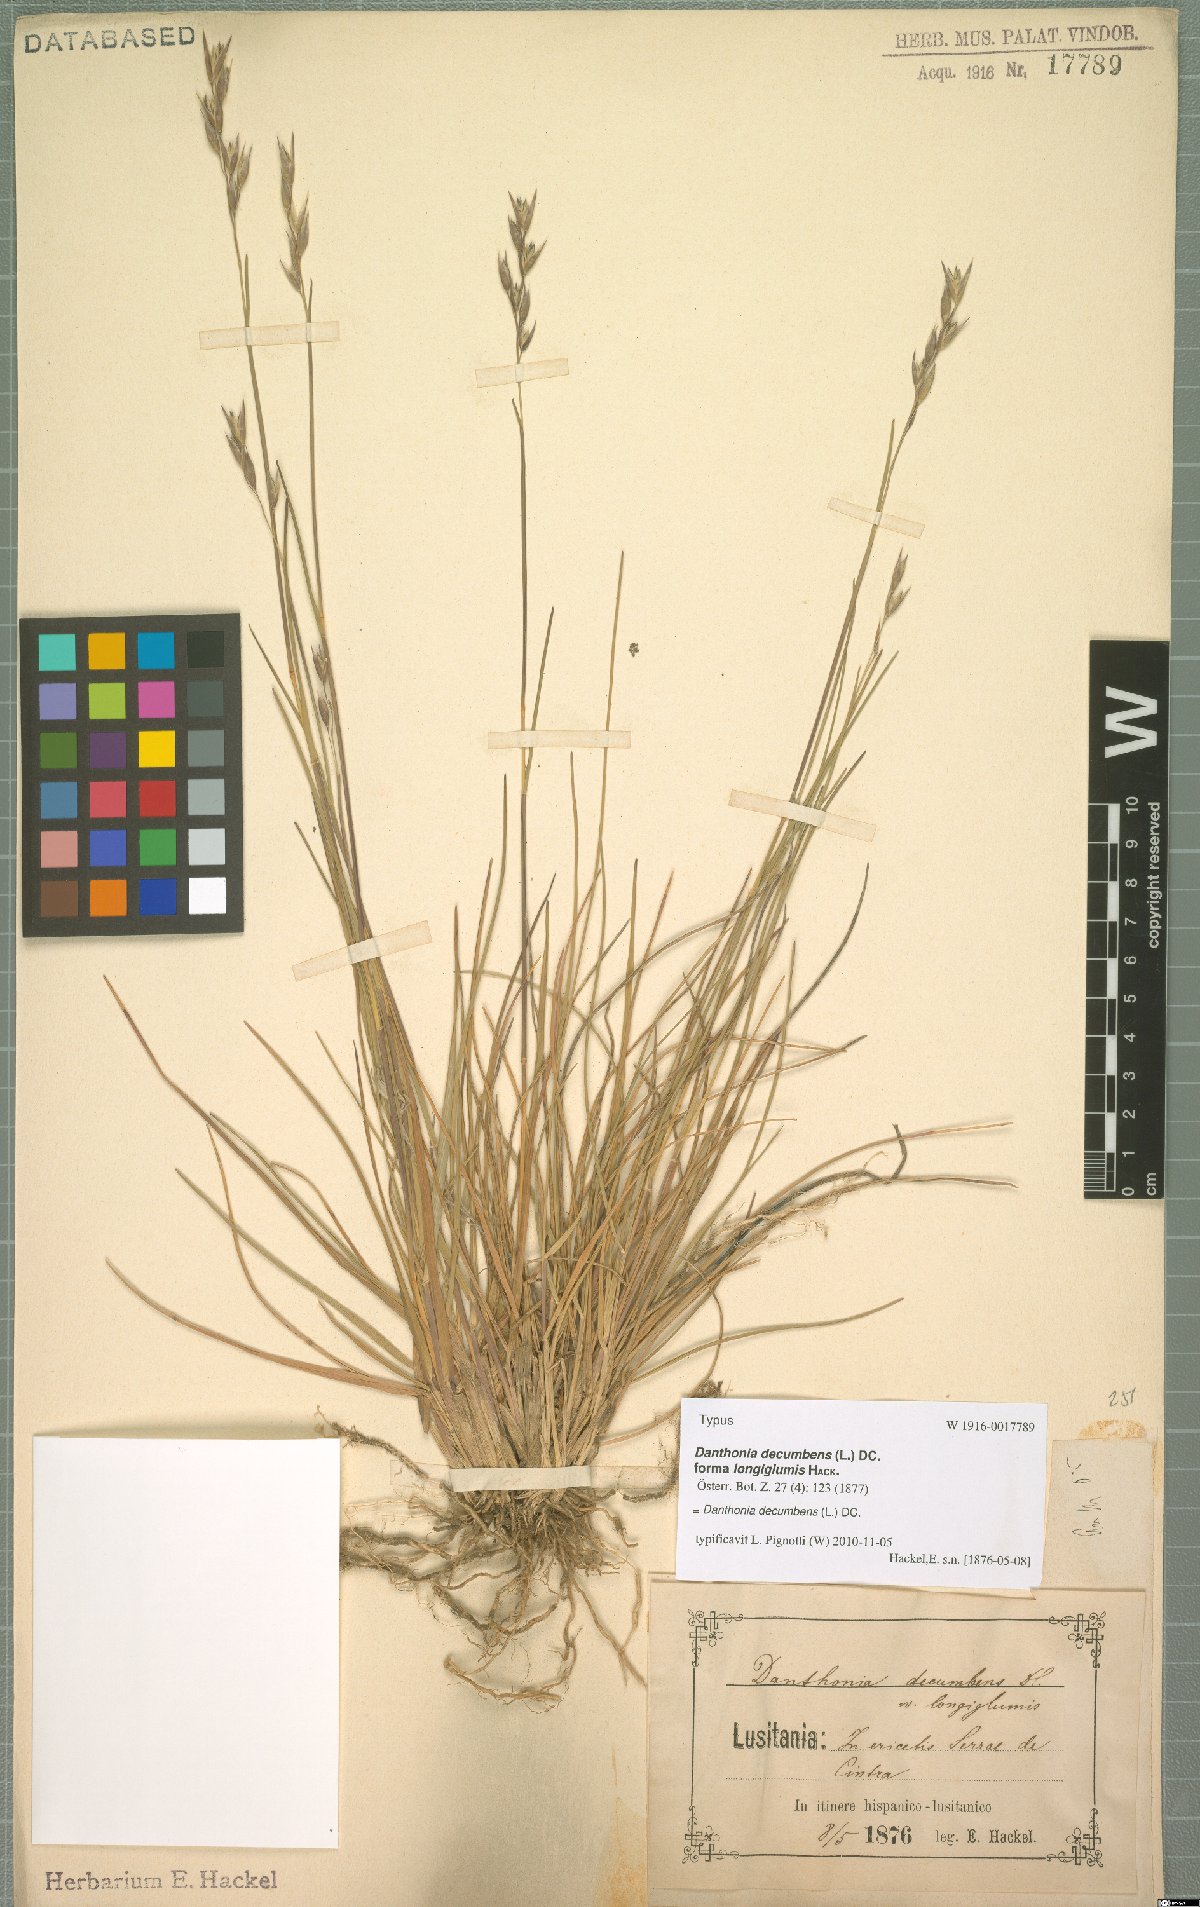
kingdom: Plantae
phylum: Tracheophyta
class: Liliopsida
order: Poales
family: Poaceae
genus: Danthonia
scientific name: Danthonia decumbens
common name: Common heathgrass
